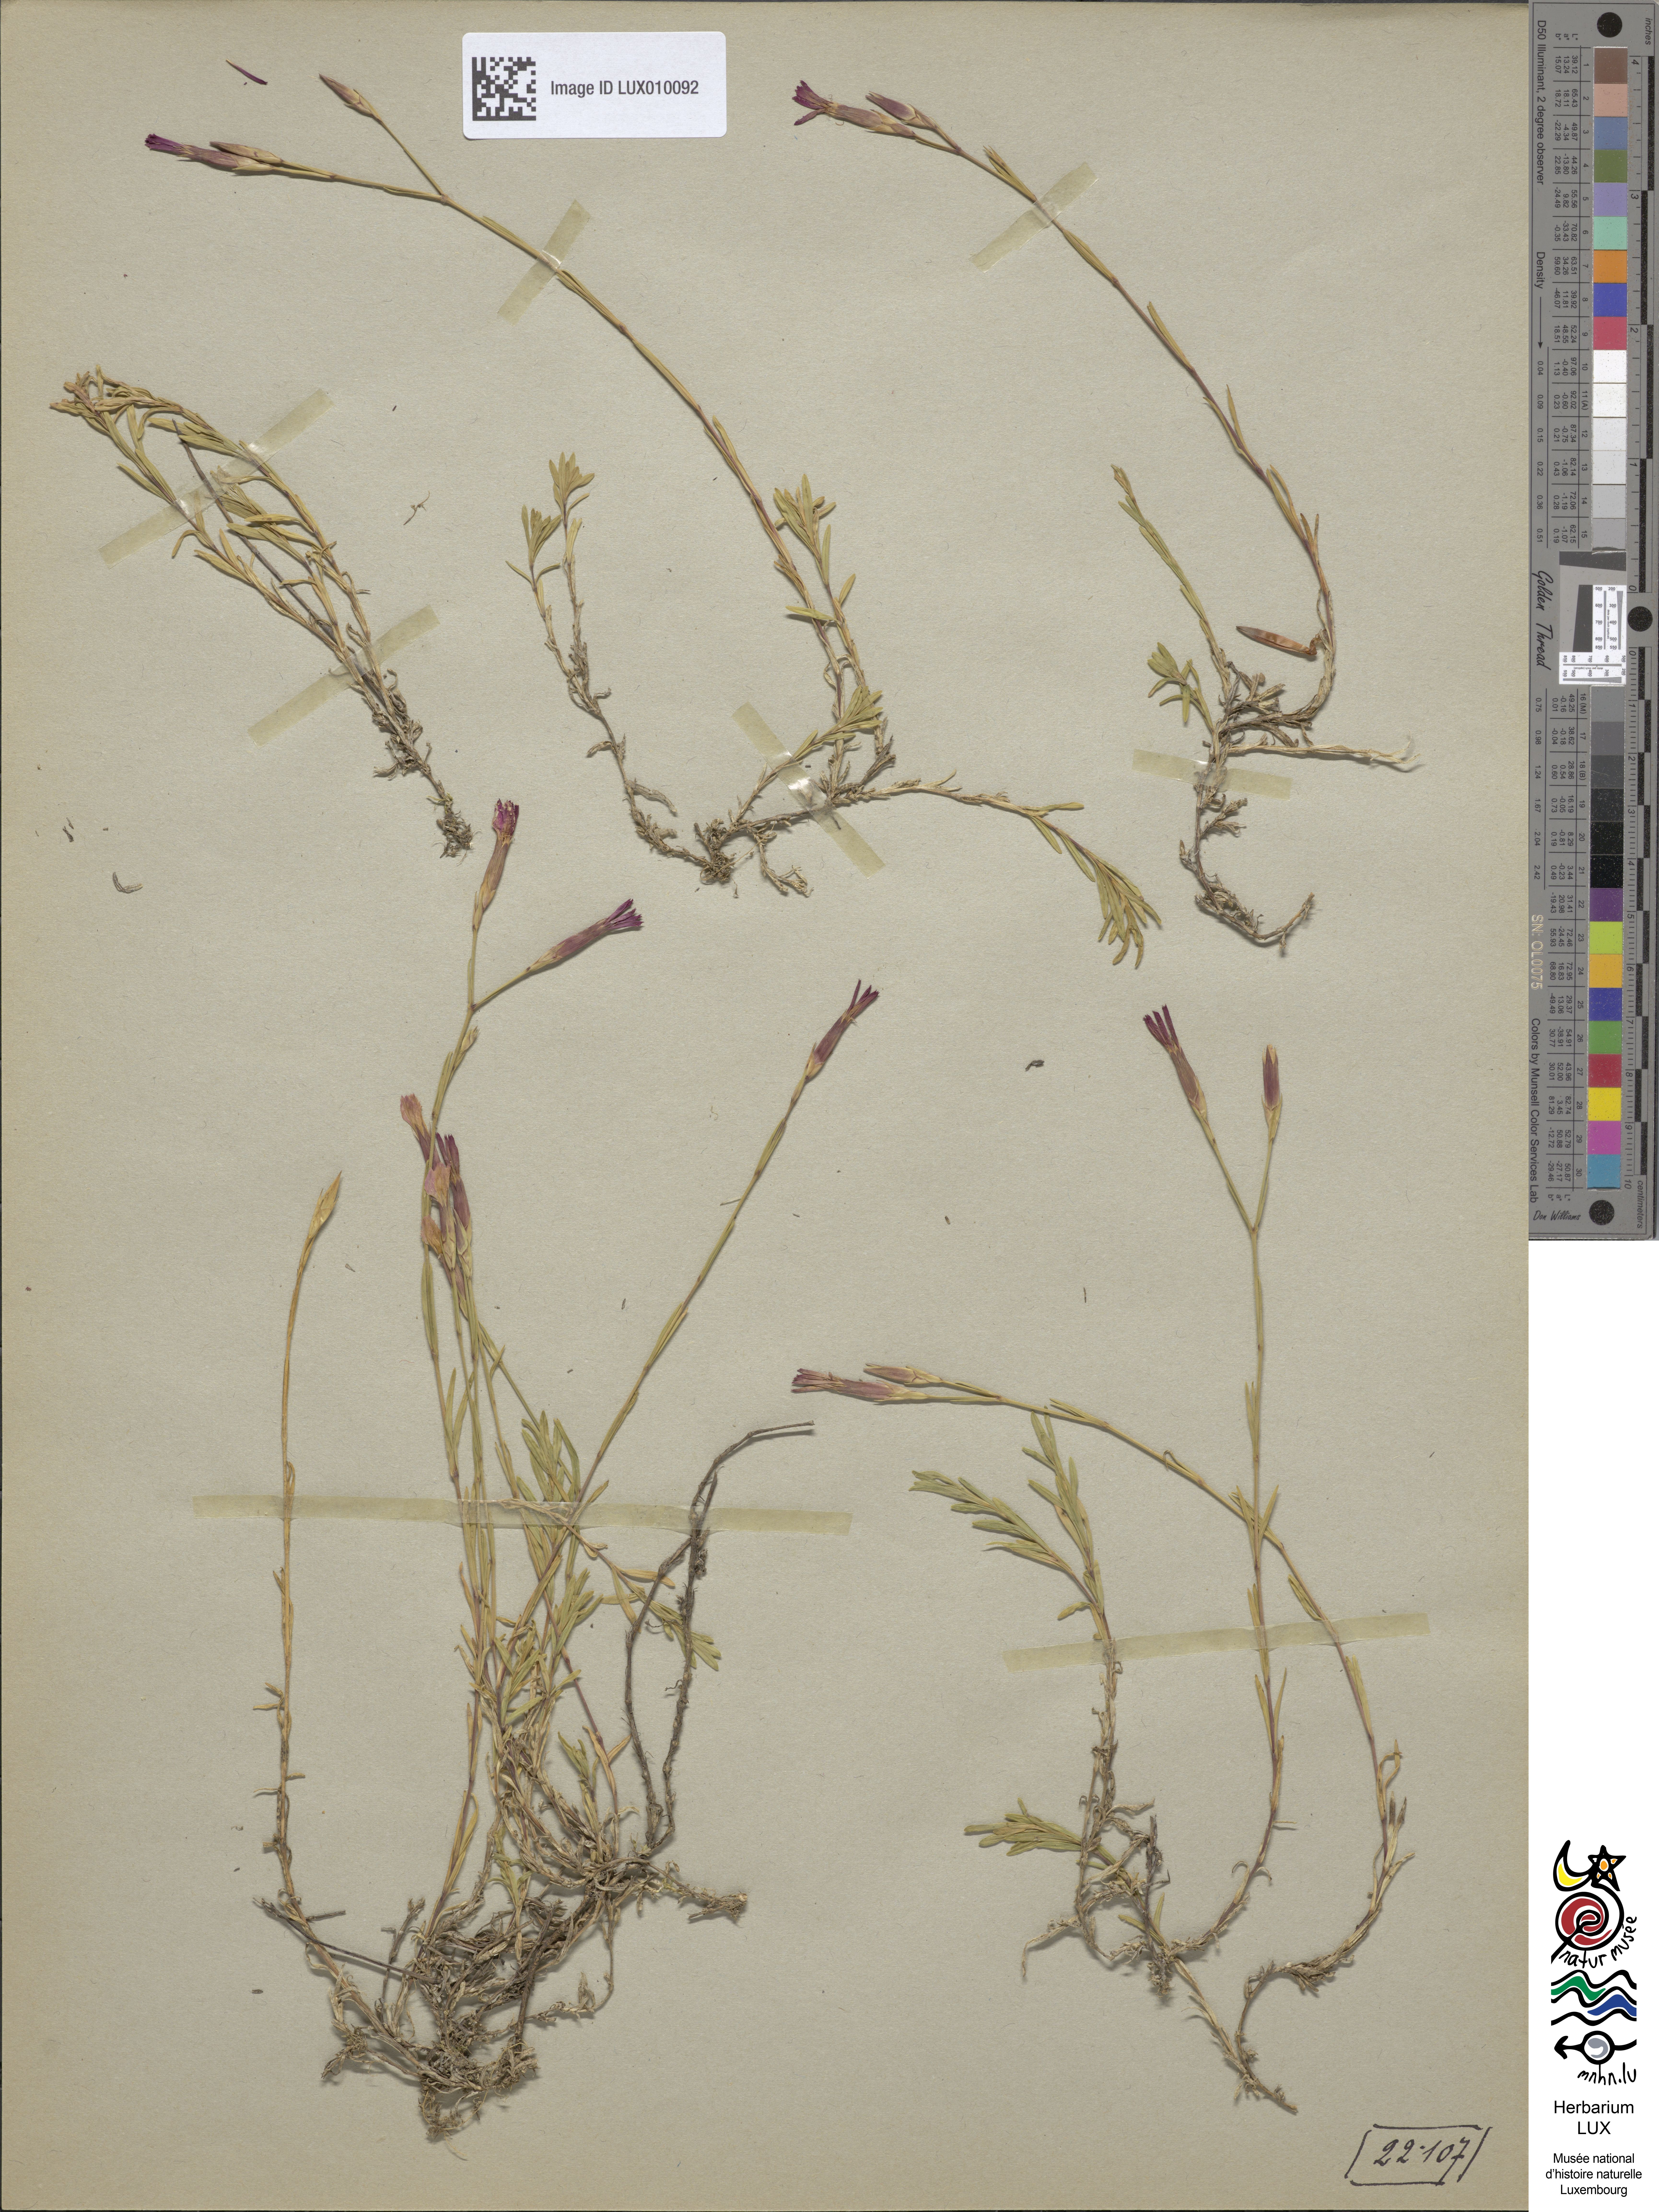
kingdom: Plantae
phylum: Tracheophyta
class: Magnoliopsida
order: Caryophyllales
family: Caryophyllaceae
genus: Dianthus
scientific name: Dianthus deltoides
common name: Maiden pink
